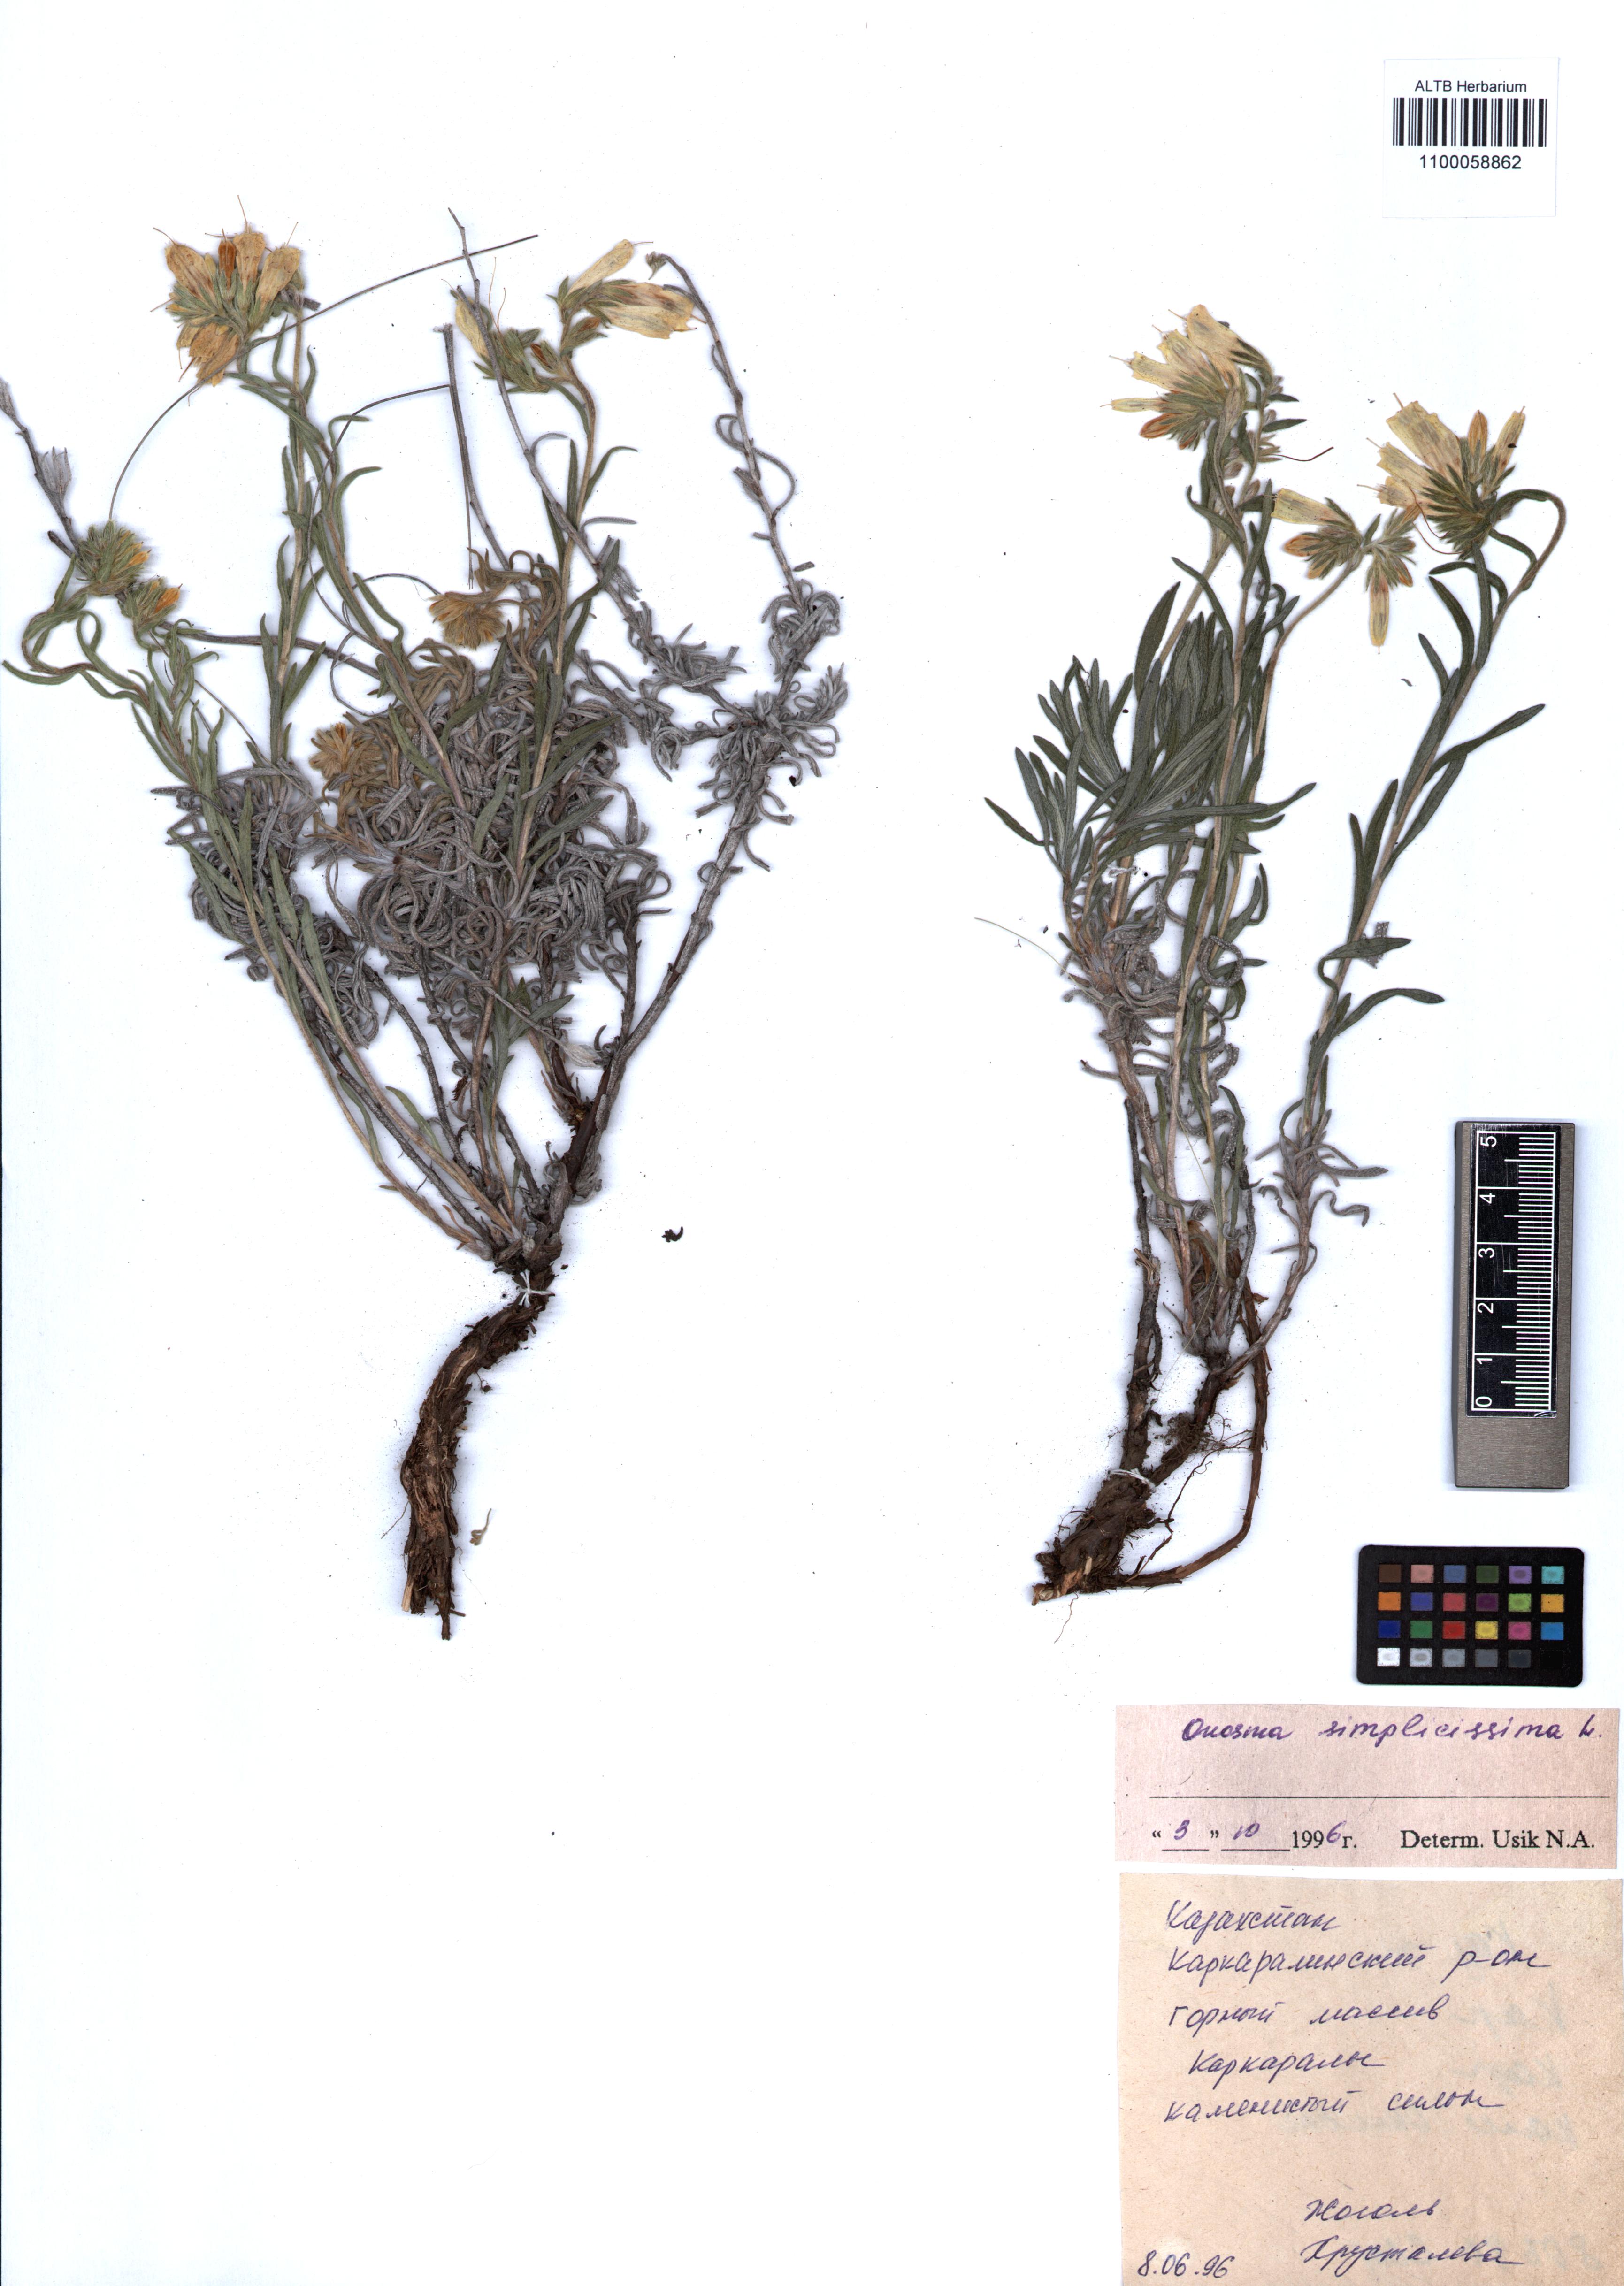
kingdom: Plantae
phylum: Tracheophyta
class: Magnoliopsida
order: Boraginales
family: Boraginaceae
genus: Onosma
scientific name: Onosma simplicissima
